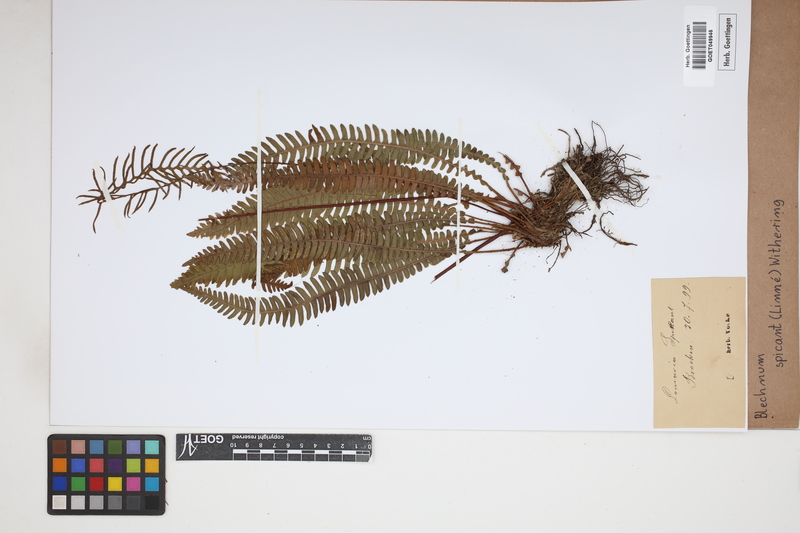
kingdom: Plantae
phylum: Tracheophyta
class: Polypodiopsida
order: Polypodiales
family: Blechnaceae
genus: Struthiopteris
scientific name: Struthiopteris spicant
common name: Deer fern
